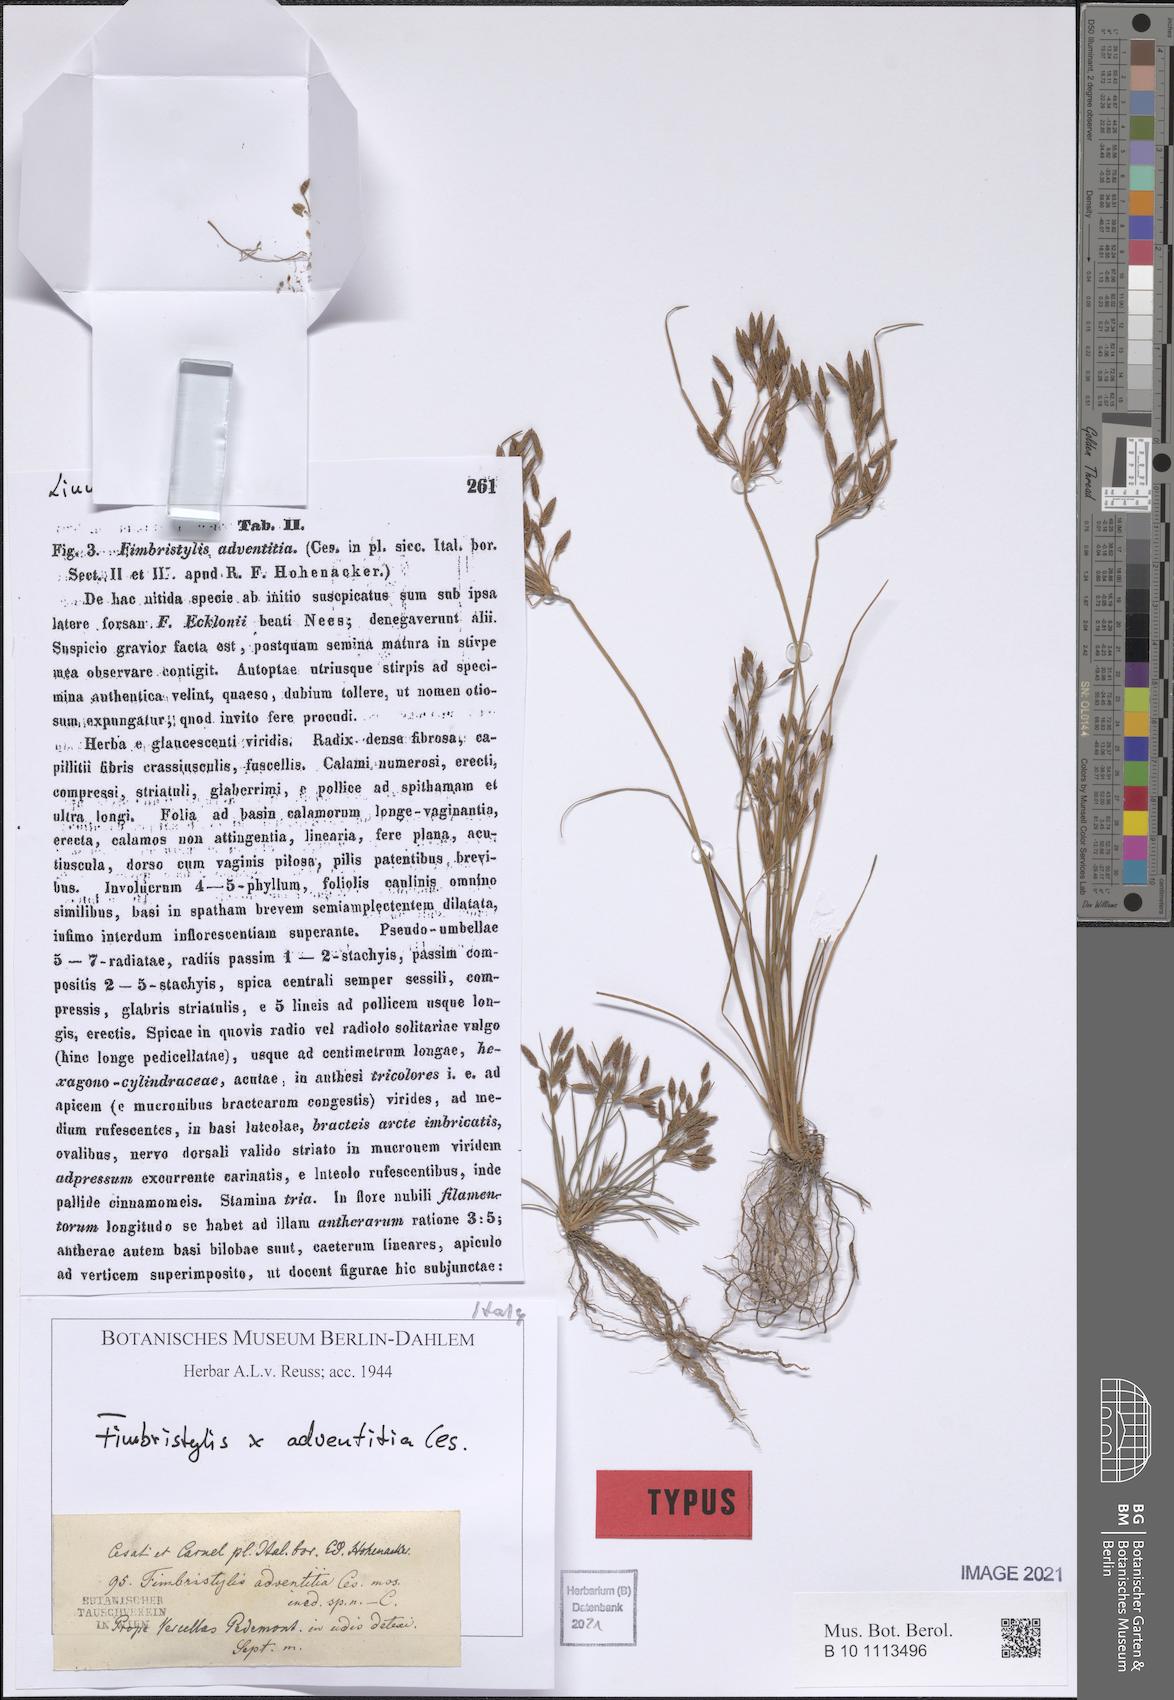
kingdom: Plantae
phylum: Tracheophyta
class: Liliopsida
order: Poales
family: Cyperaceae
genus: Fimbristylis
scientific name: Fimbristylis adventitia
